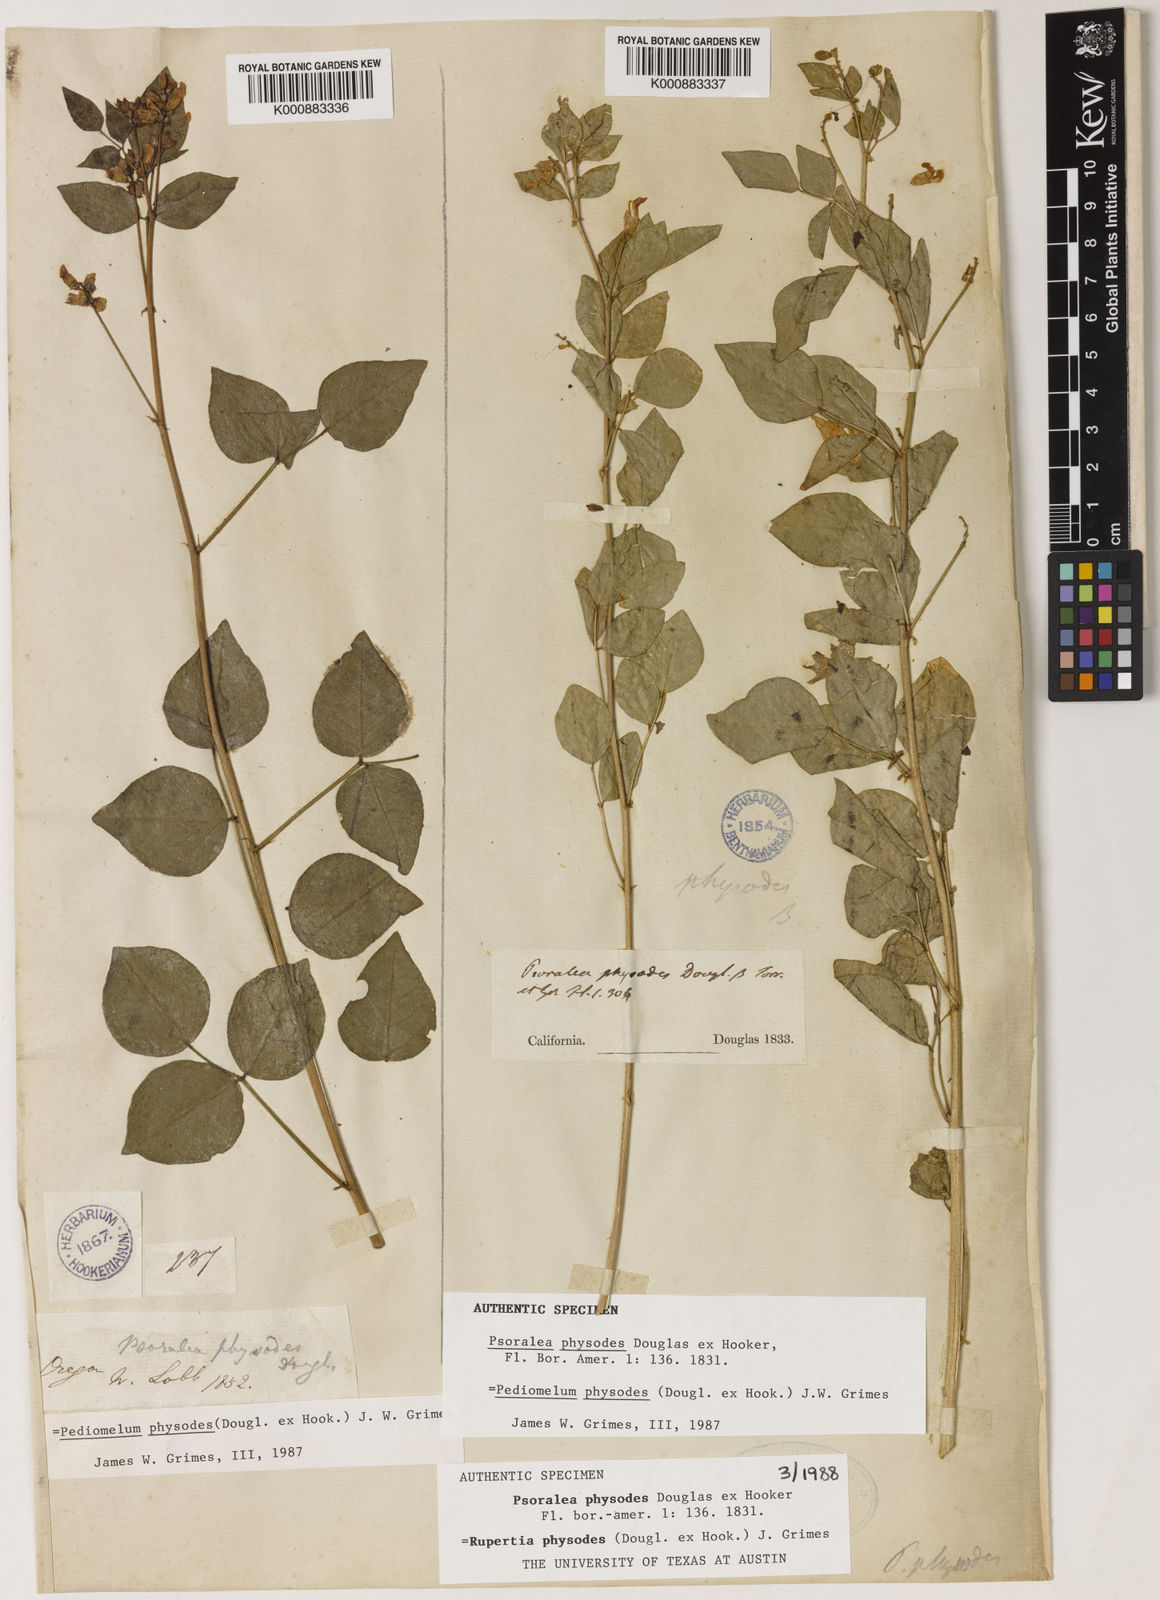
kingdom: Plantae
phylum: Tracheophyta
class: Magnoliopsida
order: Fabales
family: Fabaceae
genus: Rupertia
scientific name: Rupertia physodes
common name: California-tea
